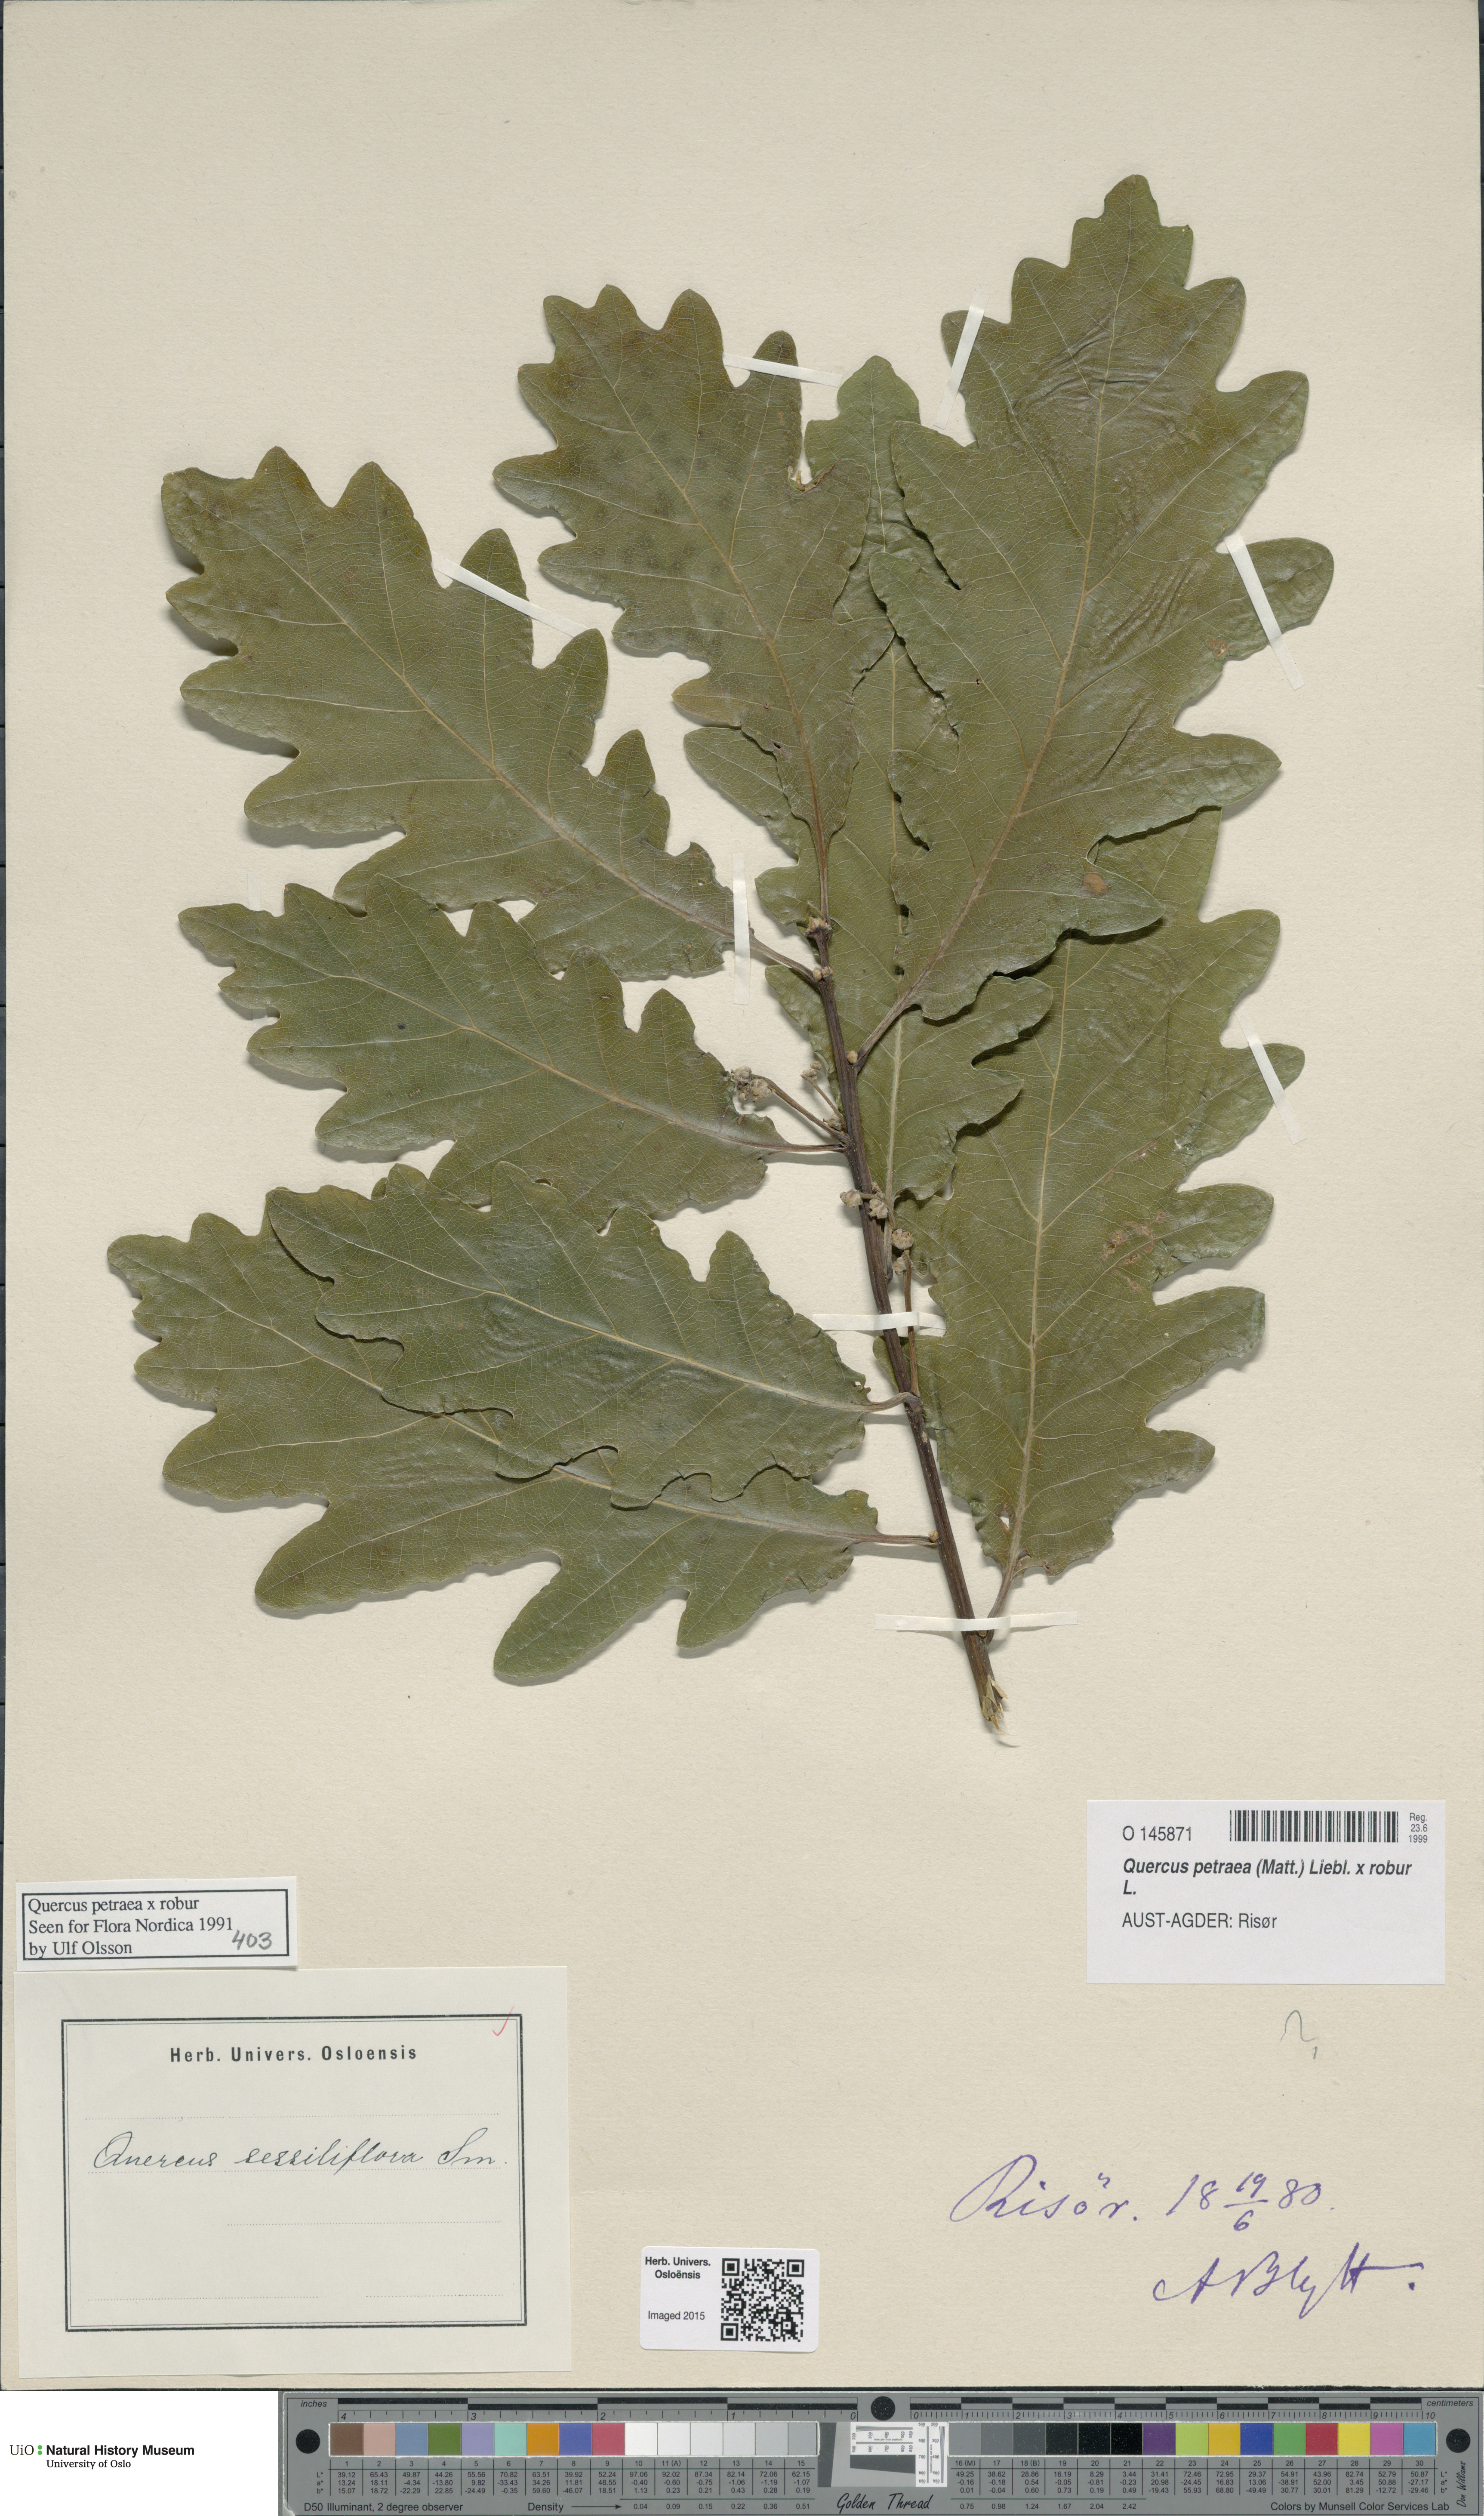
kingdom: Plantae
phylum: Tracheophyta
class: Magnoliopsida
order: Fagales
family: Fagaceae
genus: Quercus
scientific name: Quercus
